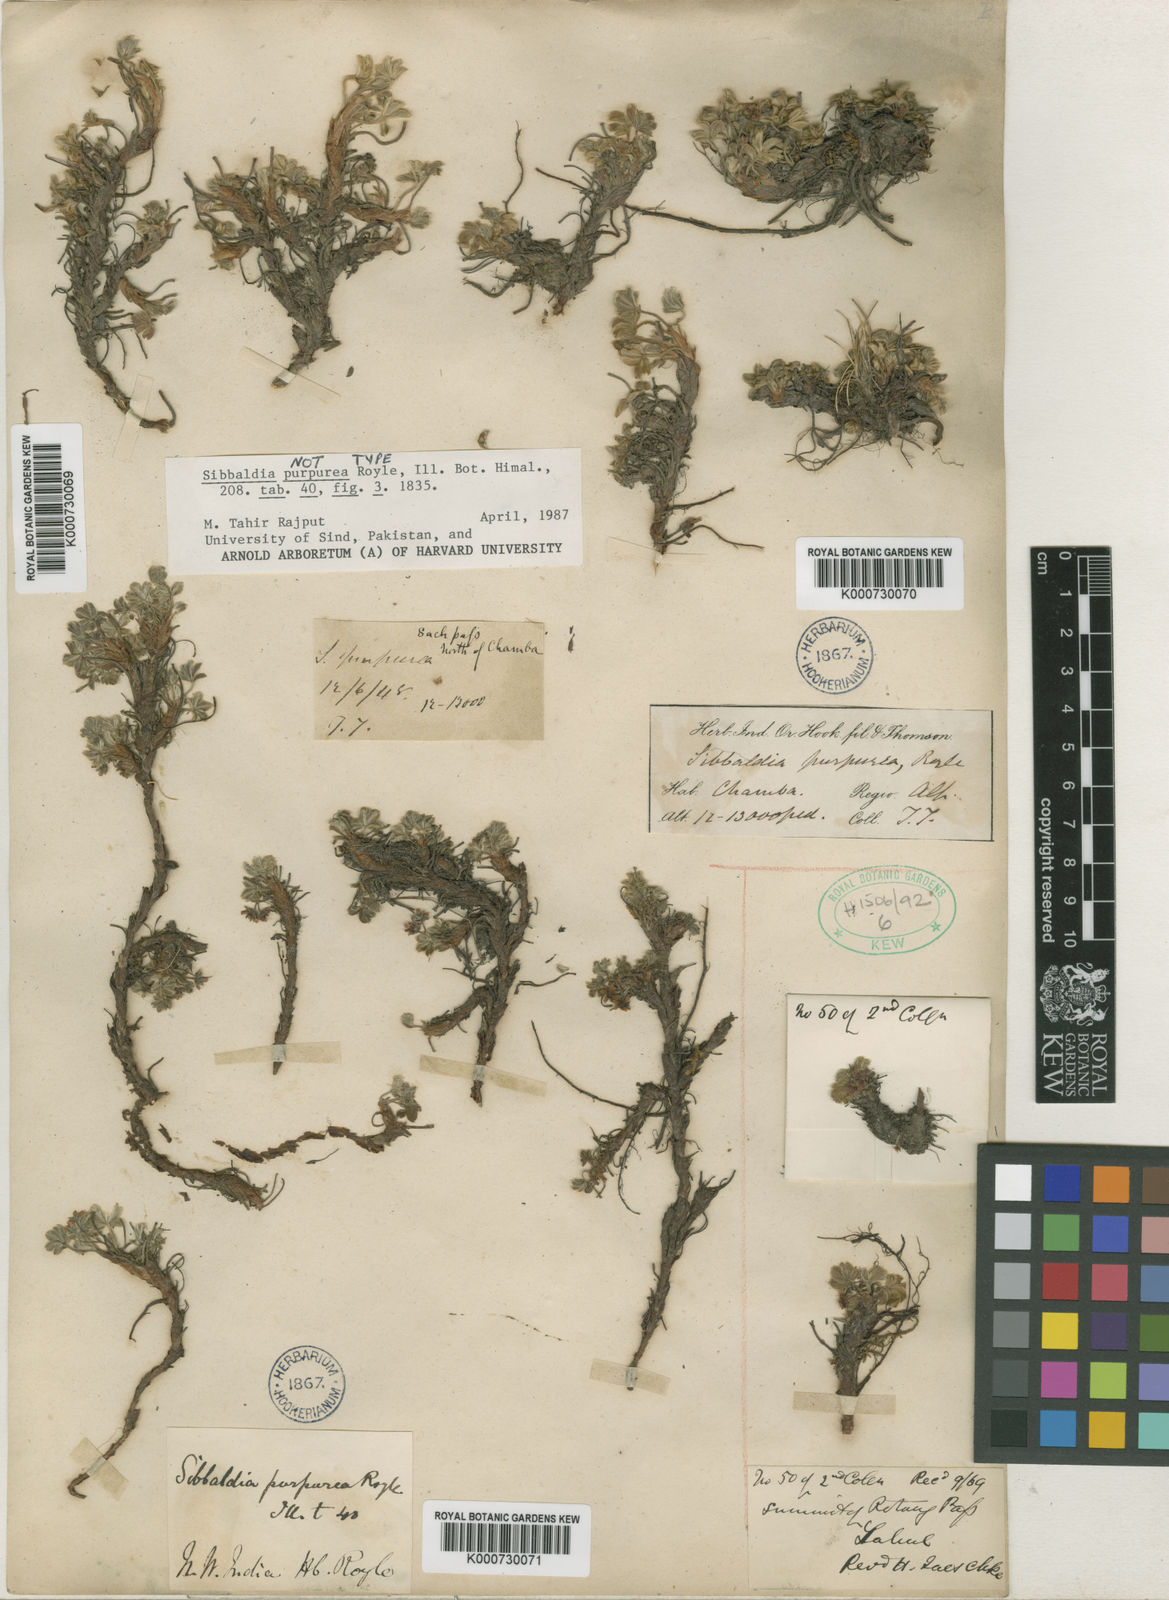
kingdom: Plantae
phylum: Tracheophyta
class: Magnoliopsida
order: Rosales
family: Rosaceae
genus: Potentilla
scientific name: Potentilla purpurea
